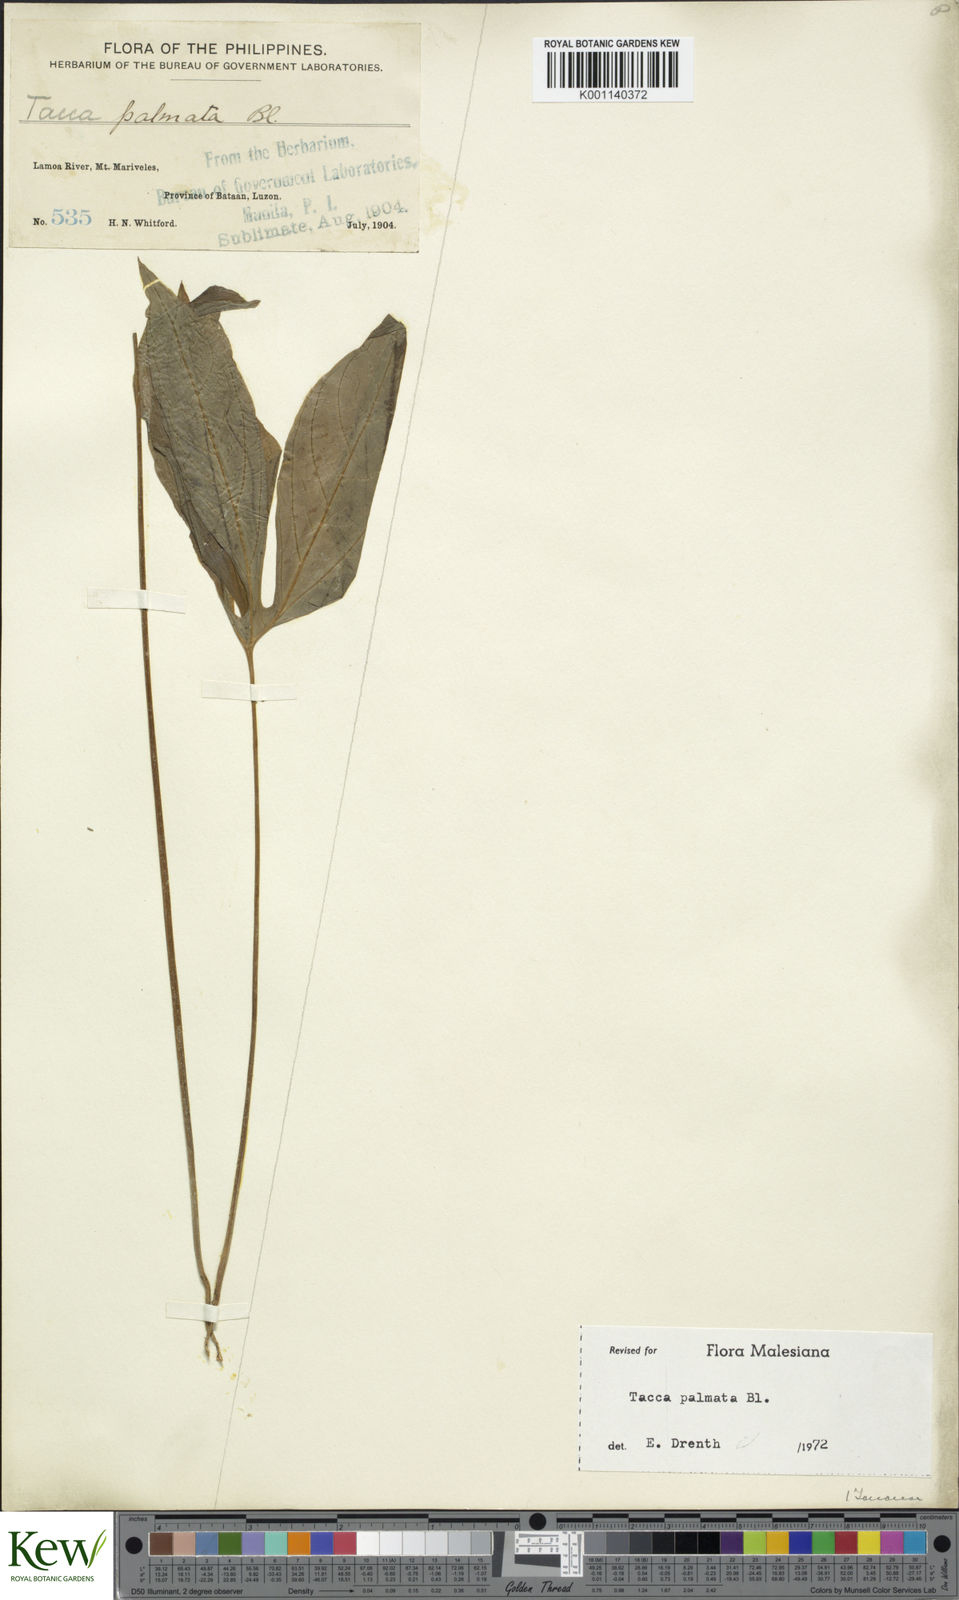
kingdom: Plantae
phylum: Tracheophyta
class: Liliopsida
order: Dioscoreales
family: Dioscoreaceae
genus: Tacca
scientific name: Tacca palmata
